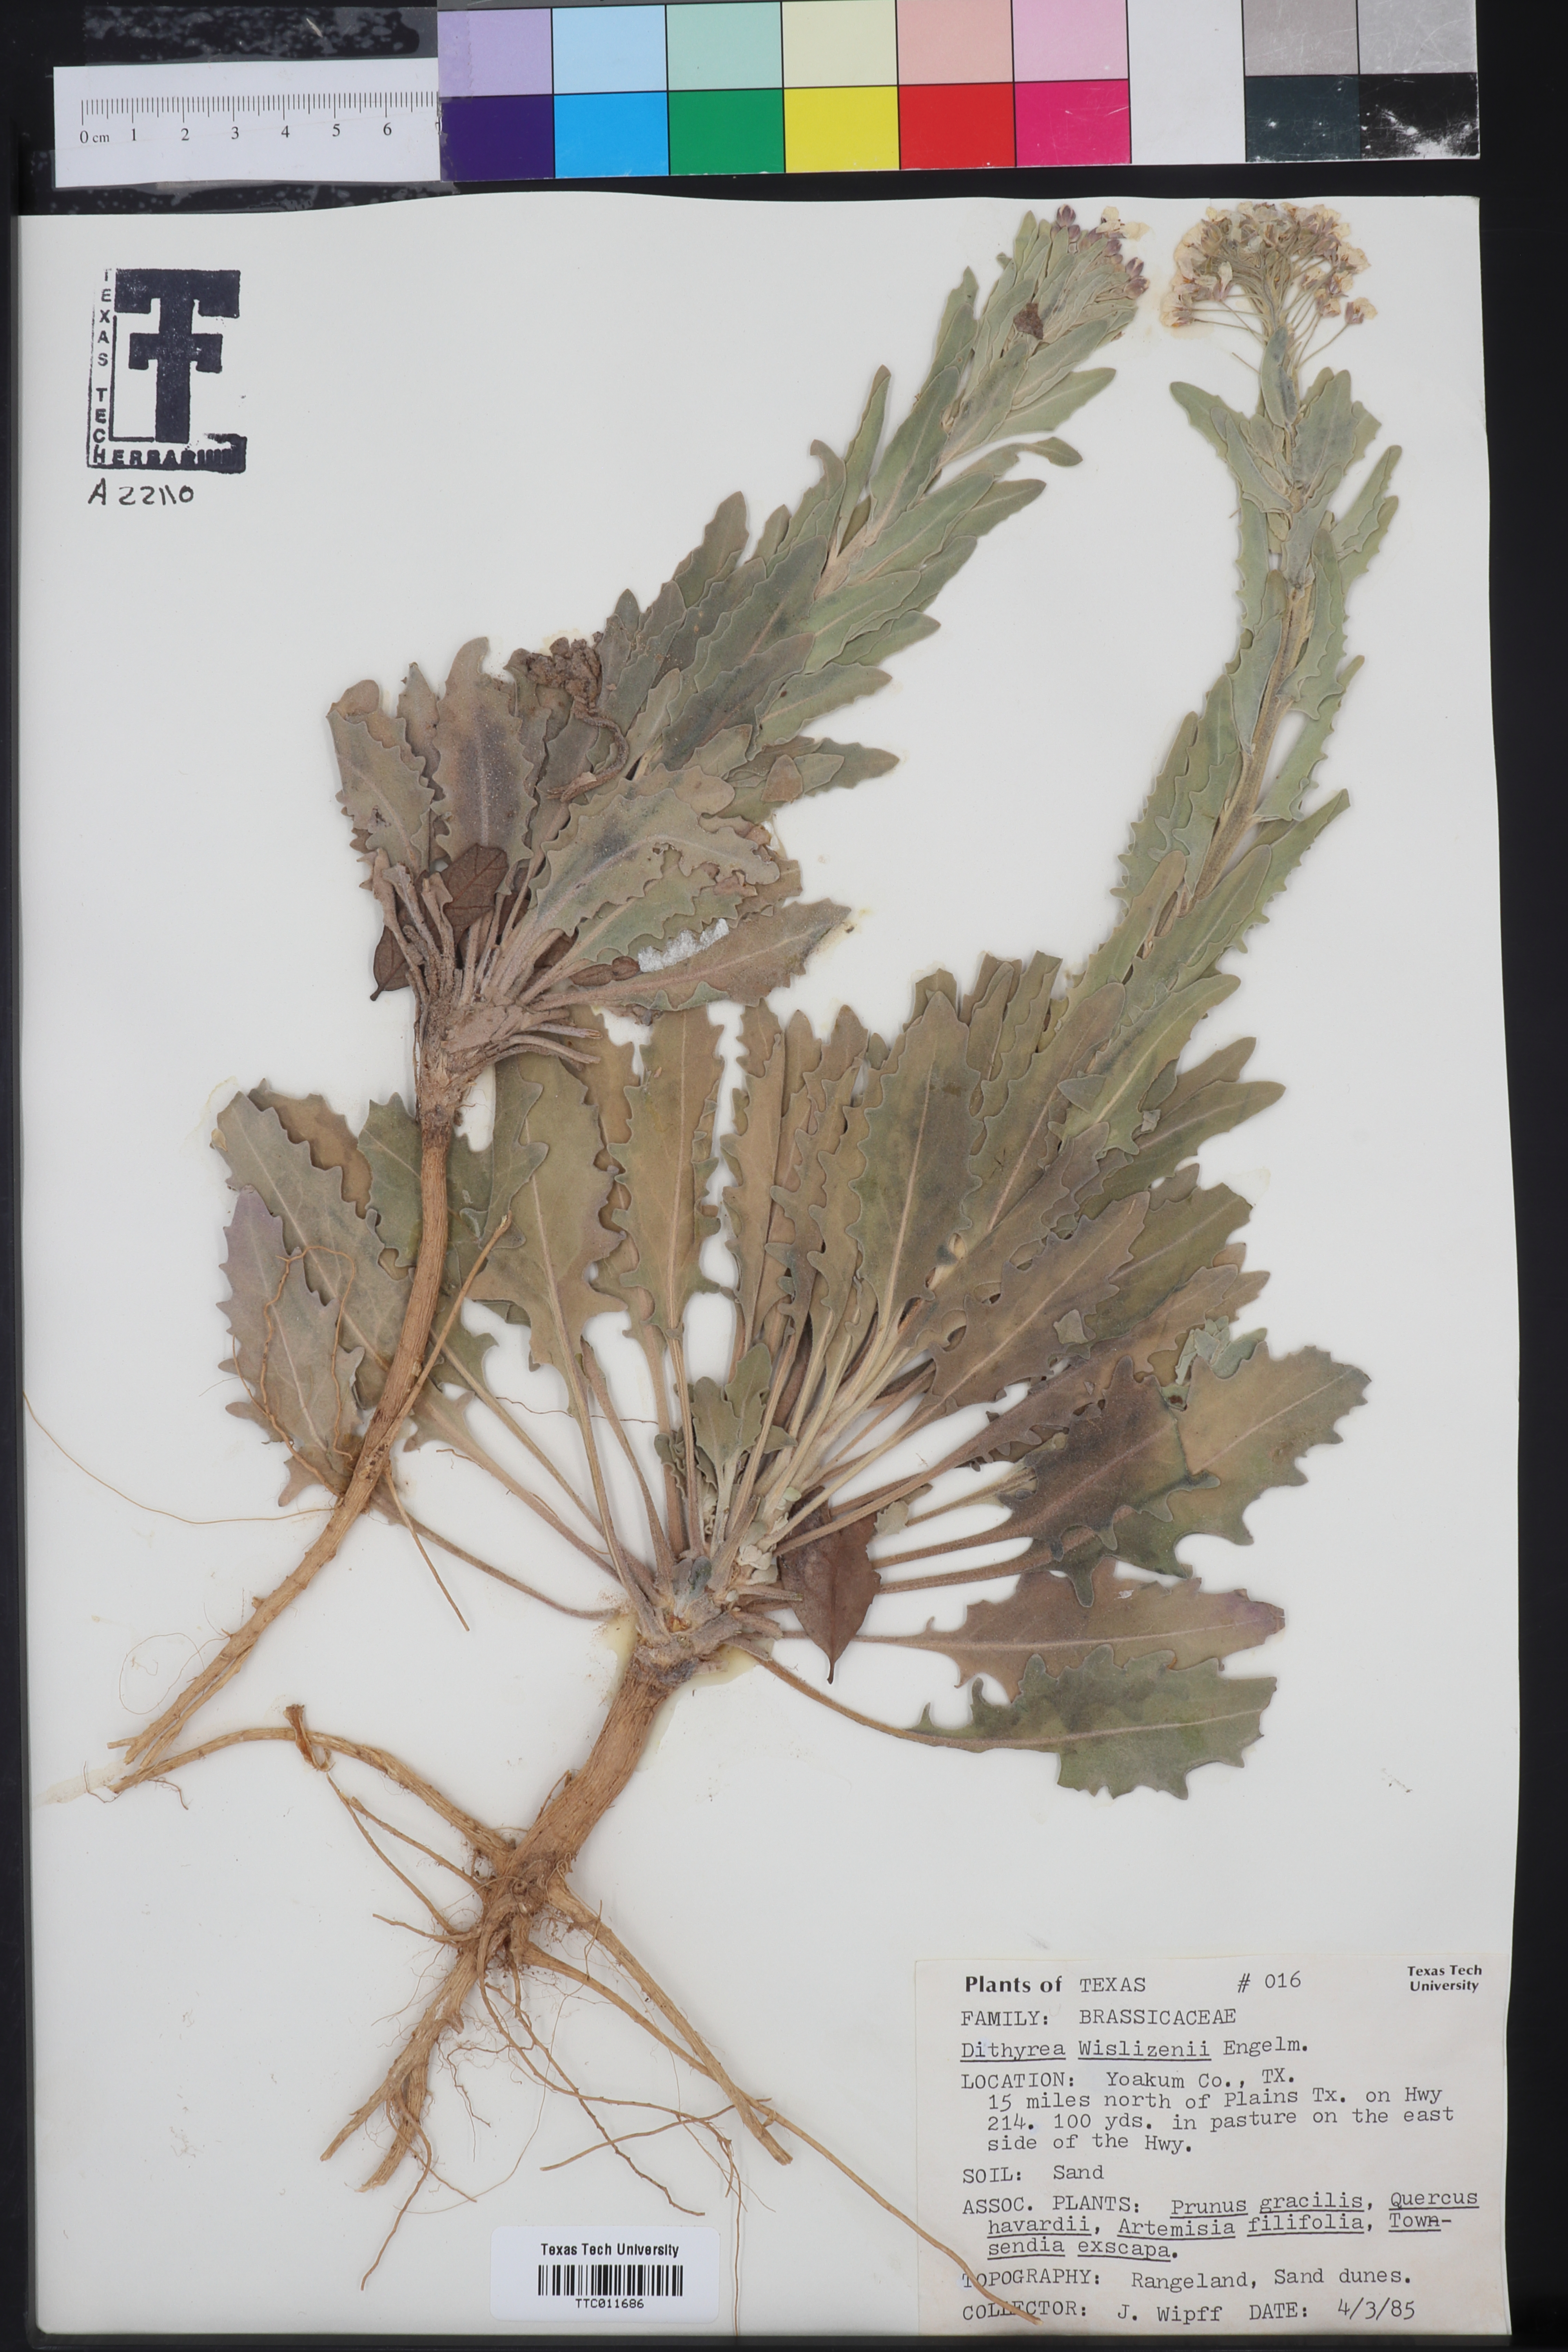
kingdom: Plantae
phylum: Tracheophyta
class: Magnoliopsida
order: Brassicales
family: Brassicaceae
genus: Dimorphocarpa
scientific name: Dimorphocarpa wislizenii
